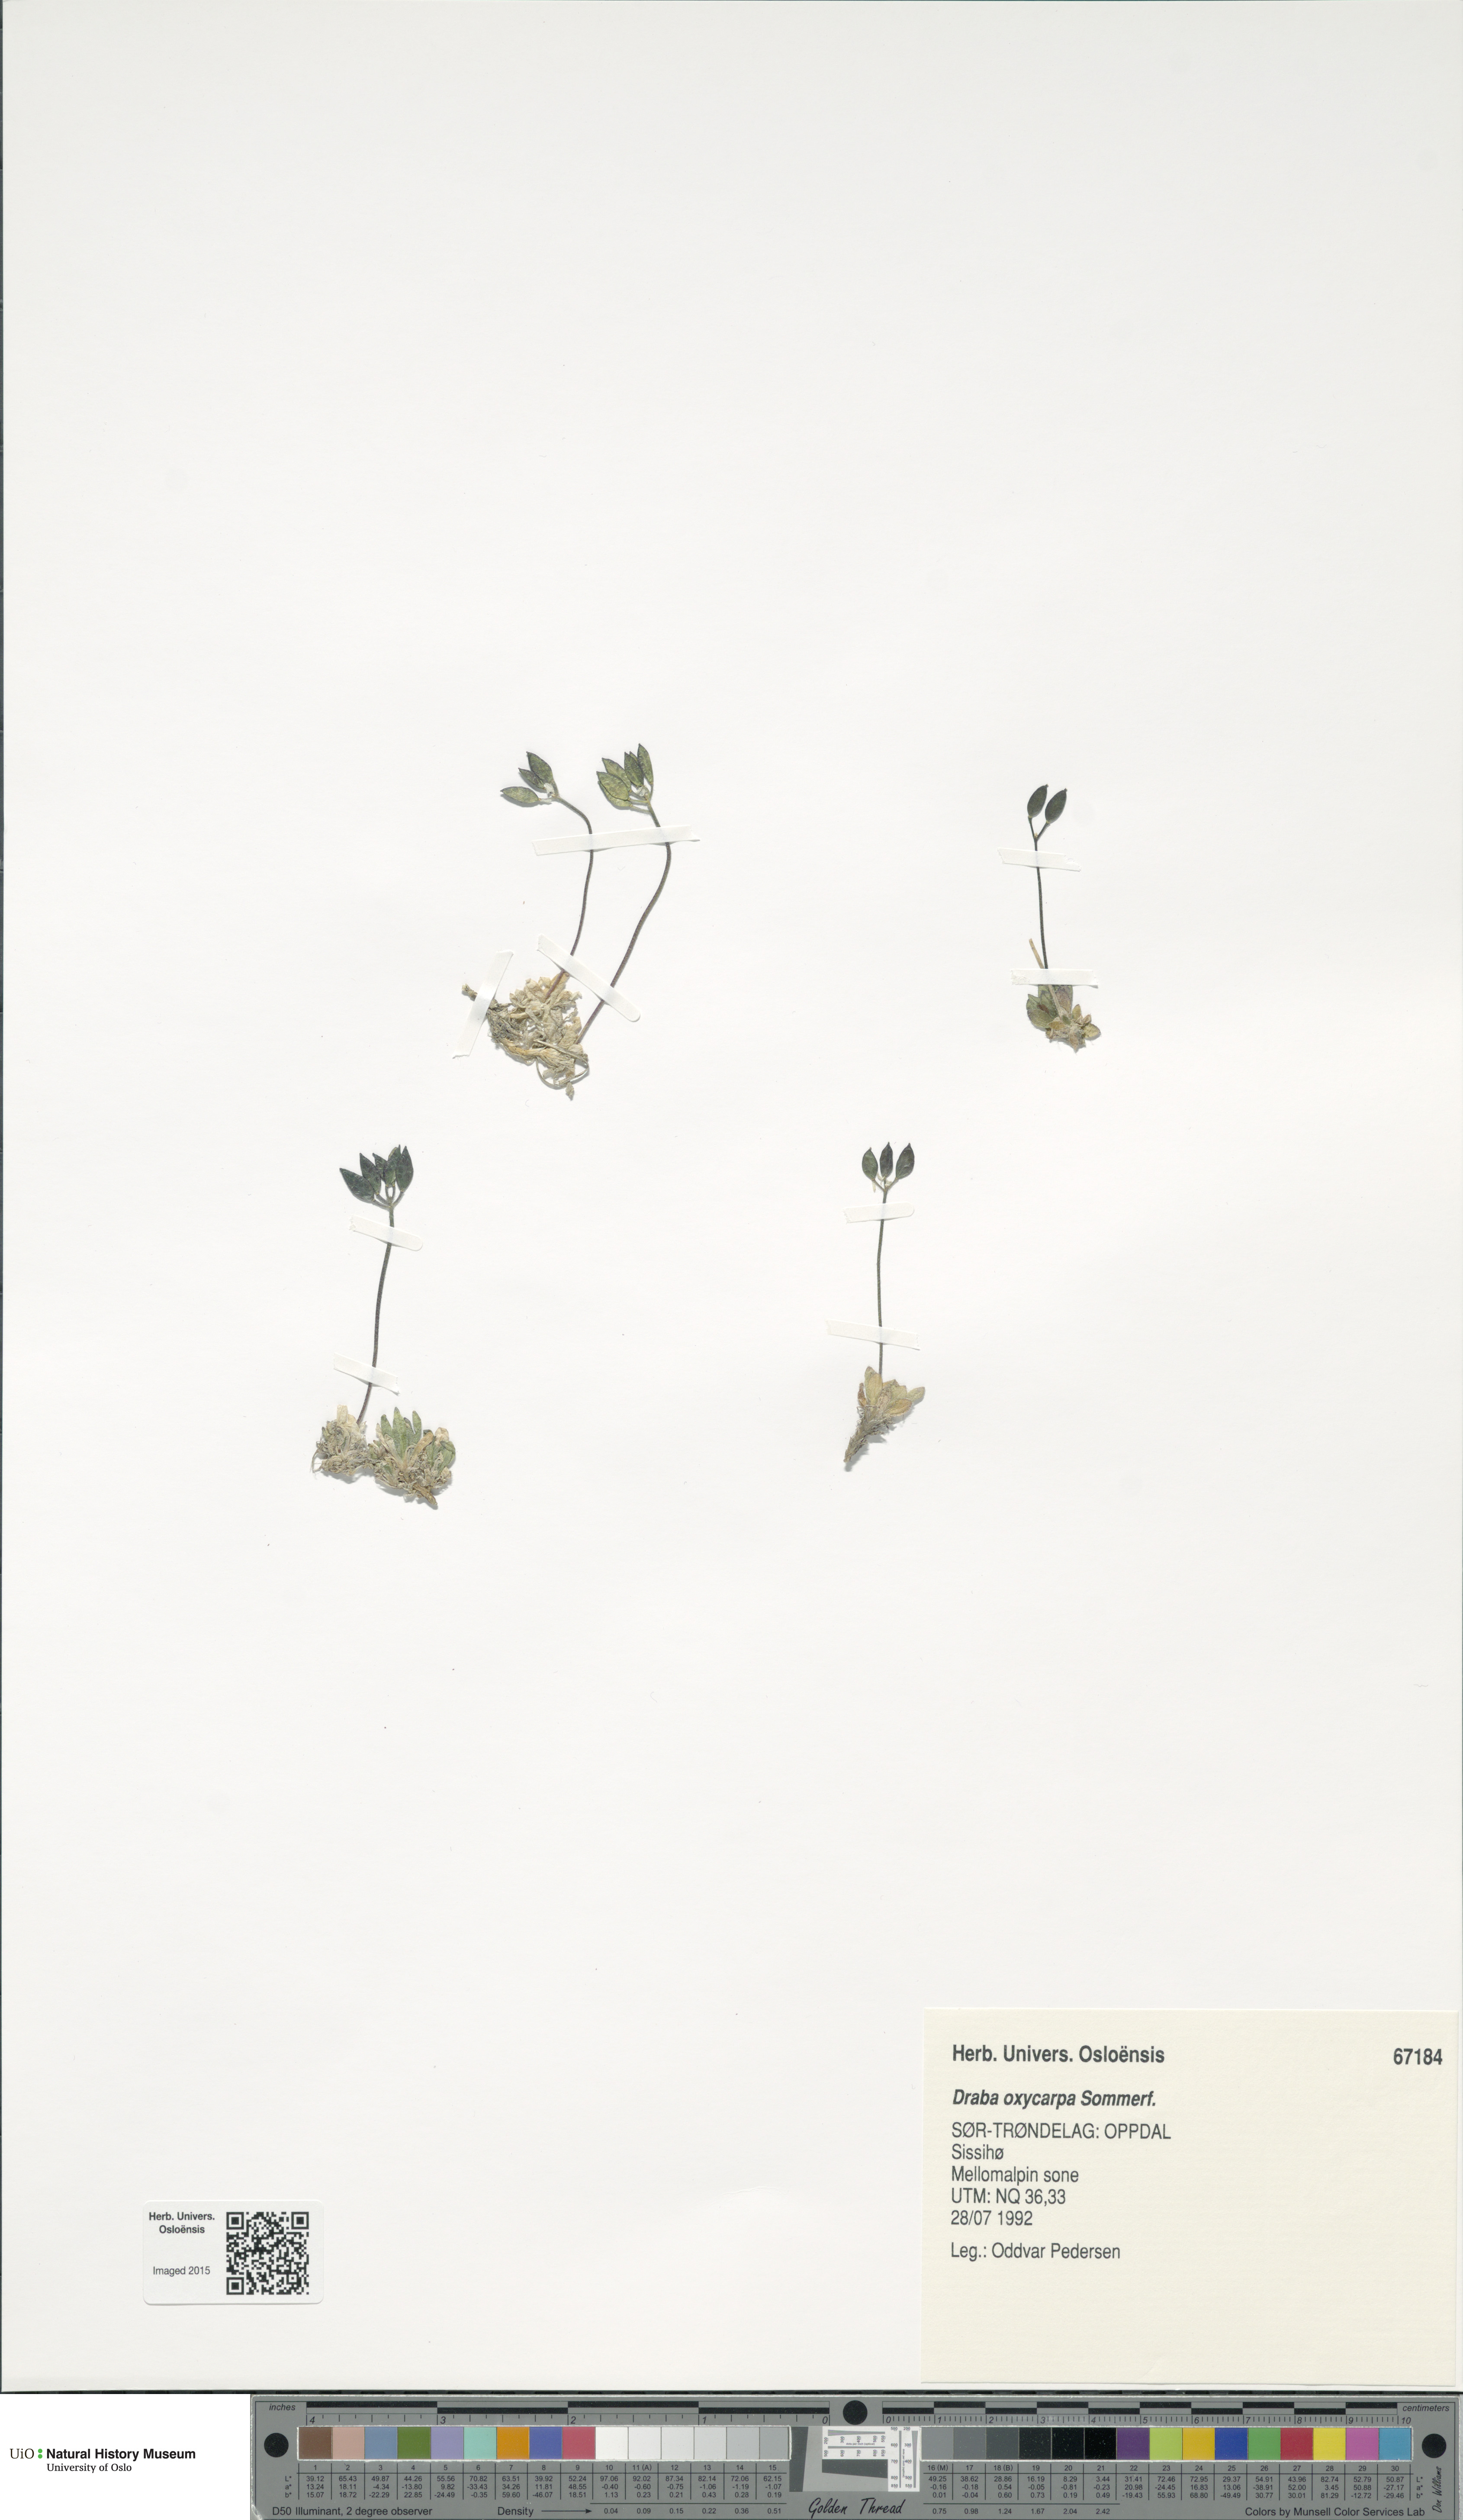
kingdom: Plantae
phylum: Tracheophyta
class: Magnoliopsida
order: Brassicales
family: Brassicaceae
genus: Draba
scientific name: Draba oxycarpa
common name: Sharp-fruited whitlow-grass
